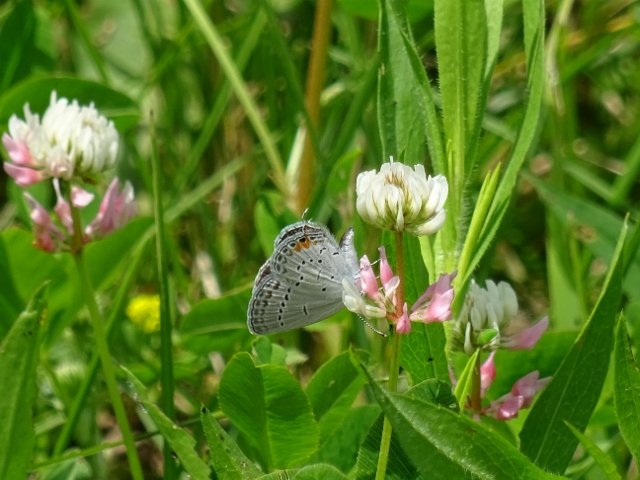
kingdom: Animalia
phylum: Arthropoda
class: Insecta
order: Lepidoptera
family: Lycaenidae
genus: Elkalyce
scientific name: Elkalyce comyntas
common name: Eastern Tailed-Blue
